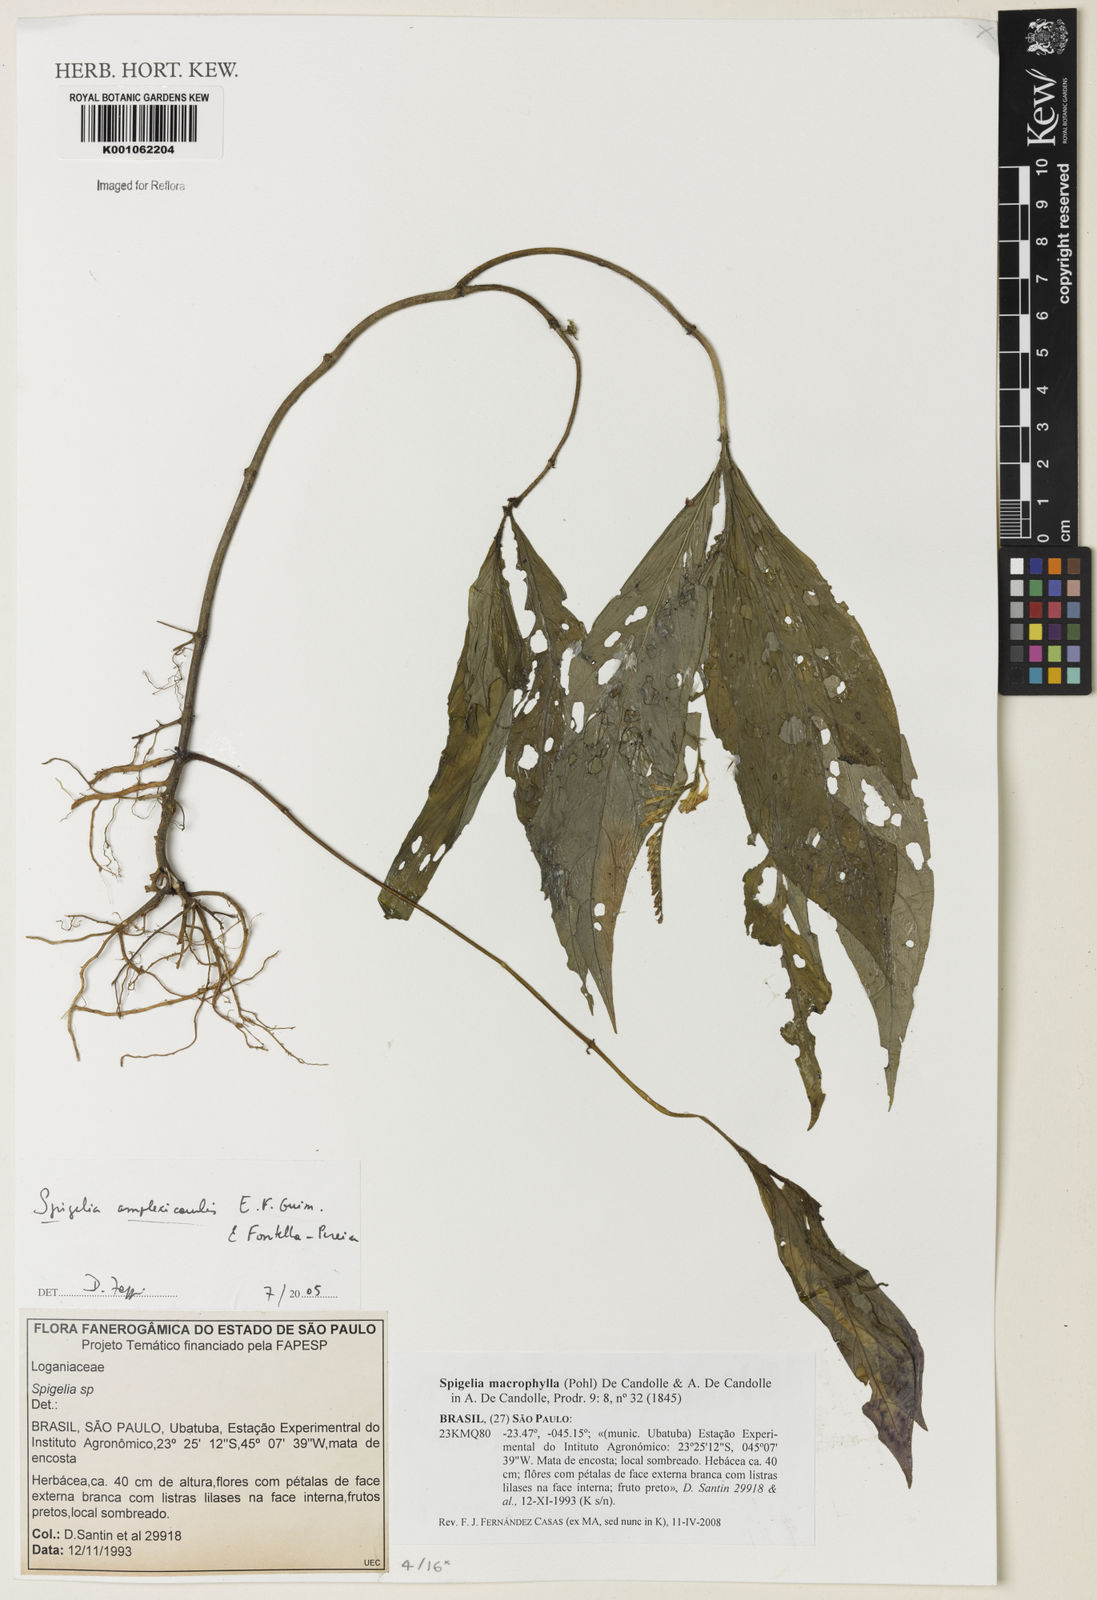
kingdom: Plantae
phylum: Tracheophyta
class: Magnoliopsida
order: Gentianales
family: Loganiaceae
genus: Spigelia
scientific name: Spigelia macrophylla
